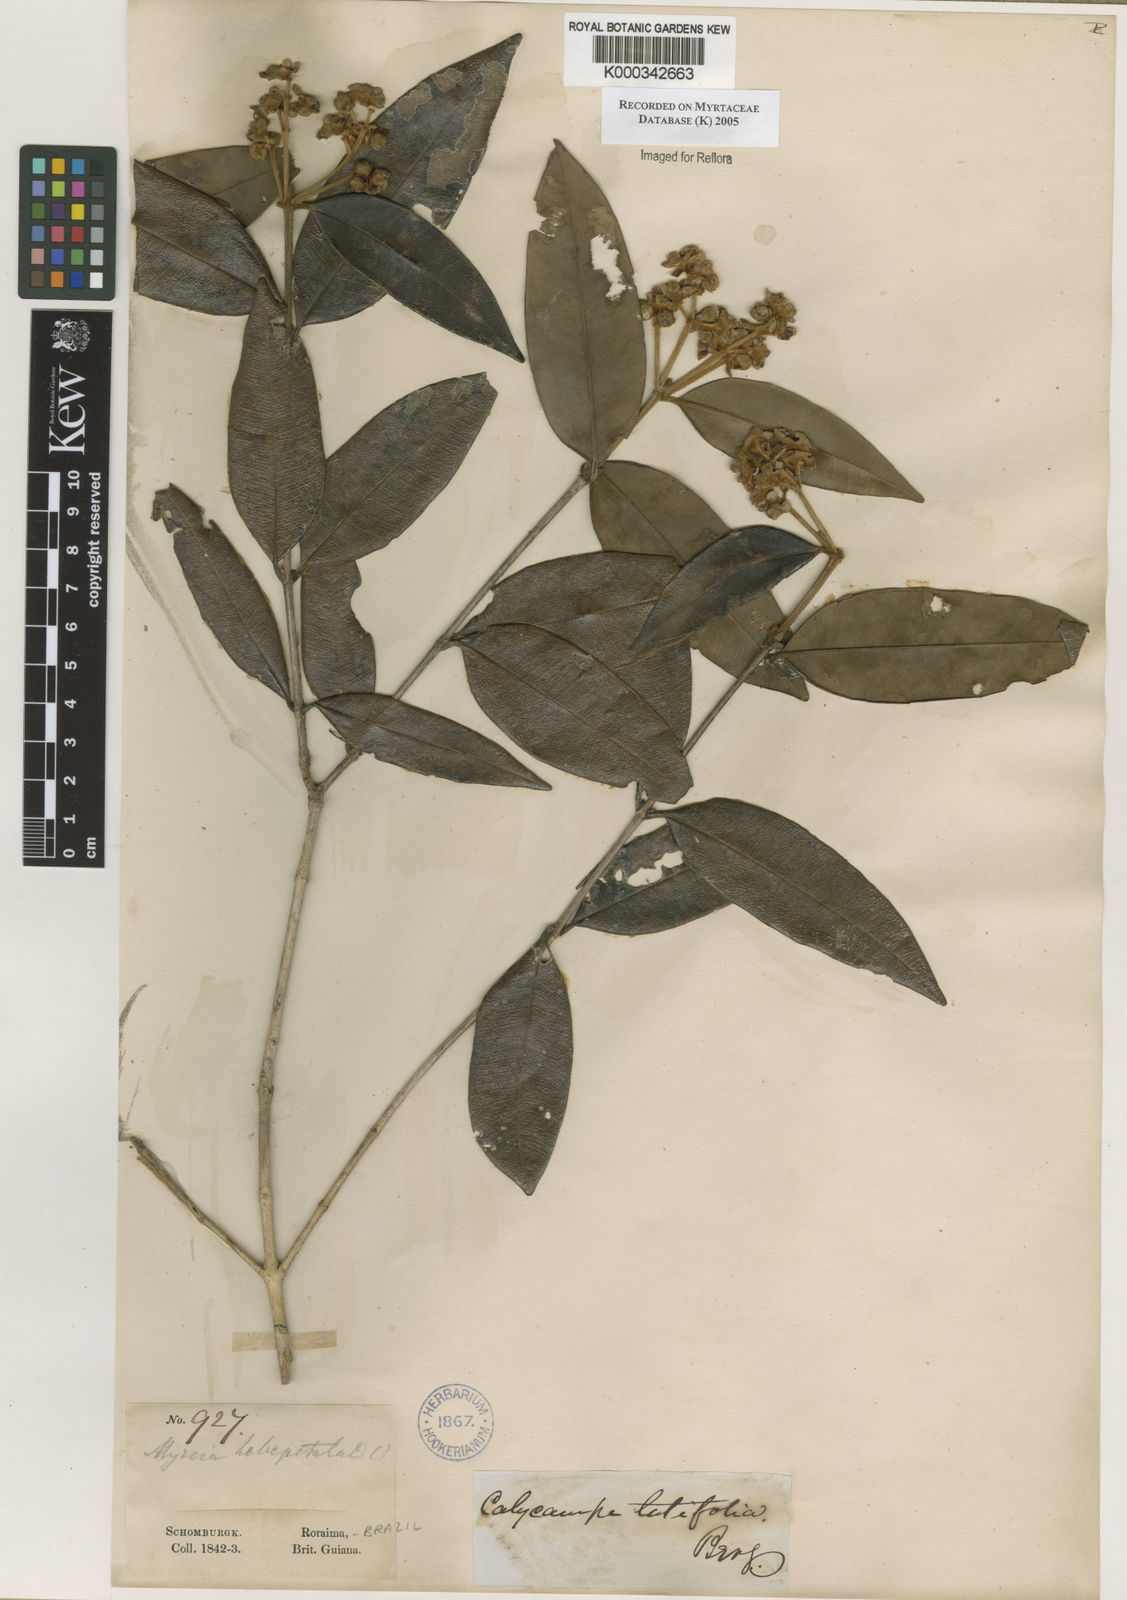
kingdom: Plantae
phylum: Tracheophyta
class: Magnoliopsida
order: Myrtales
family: Myrtaceae
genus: Myrcia
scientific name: Myrcia calycampa
